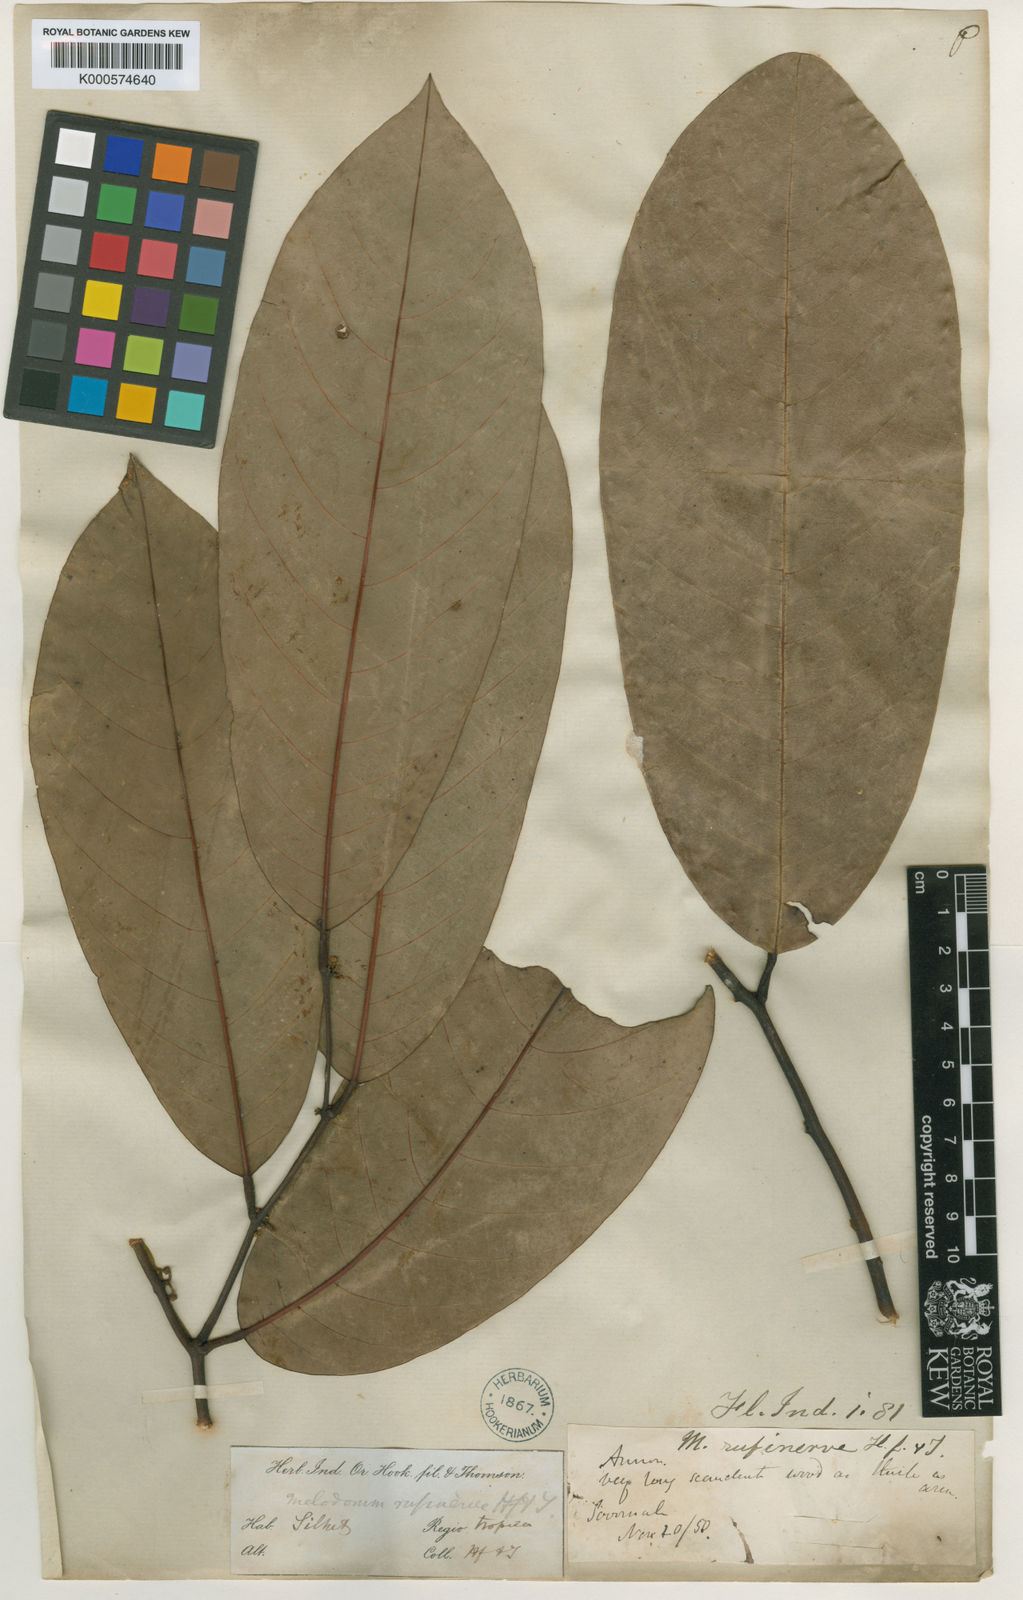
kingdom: Plantae
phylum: Tracheophyta
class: Magnoliopsida
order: Magnoliales
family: Annonaceae
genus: Fissistigma
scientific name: Fissistigma rufinerve
